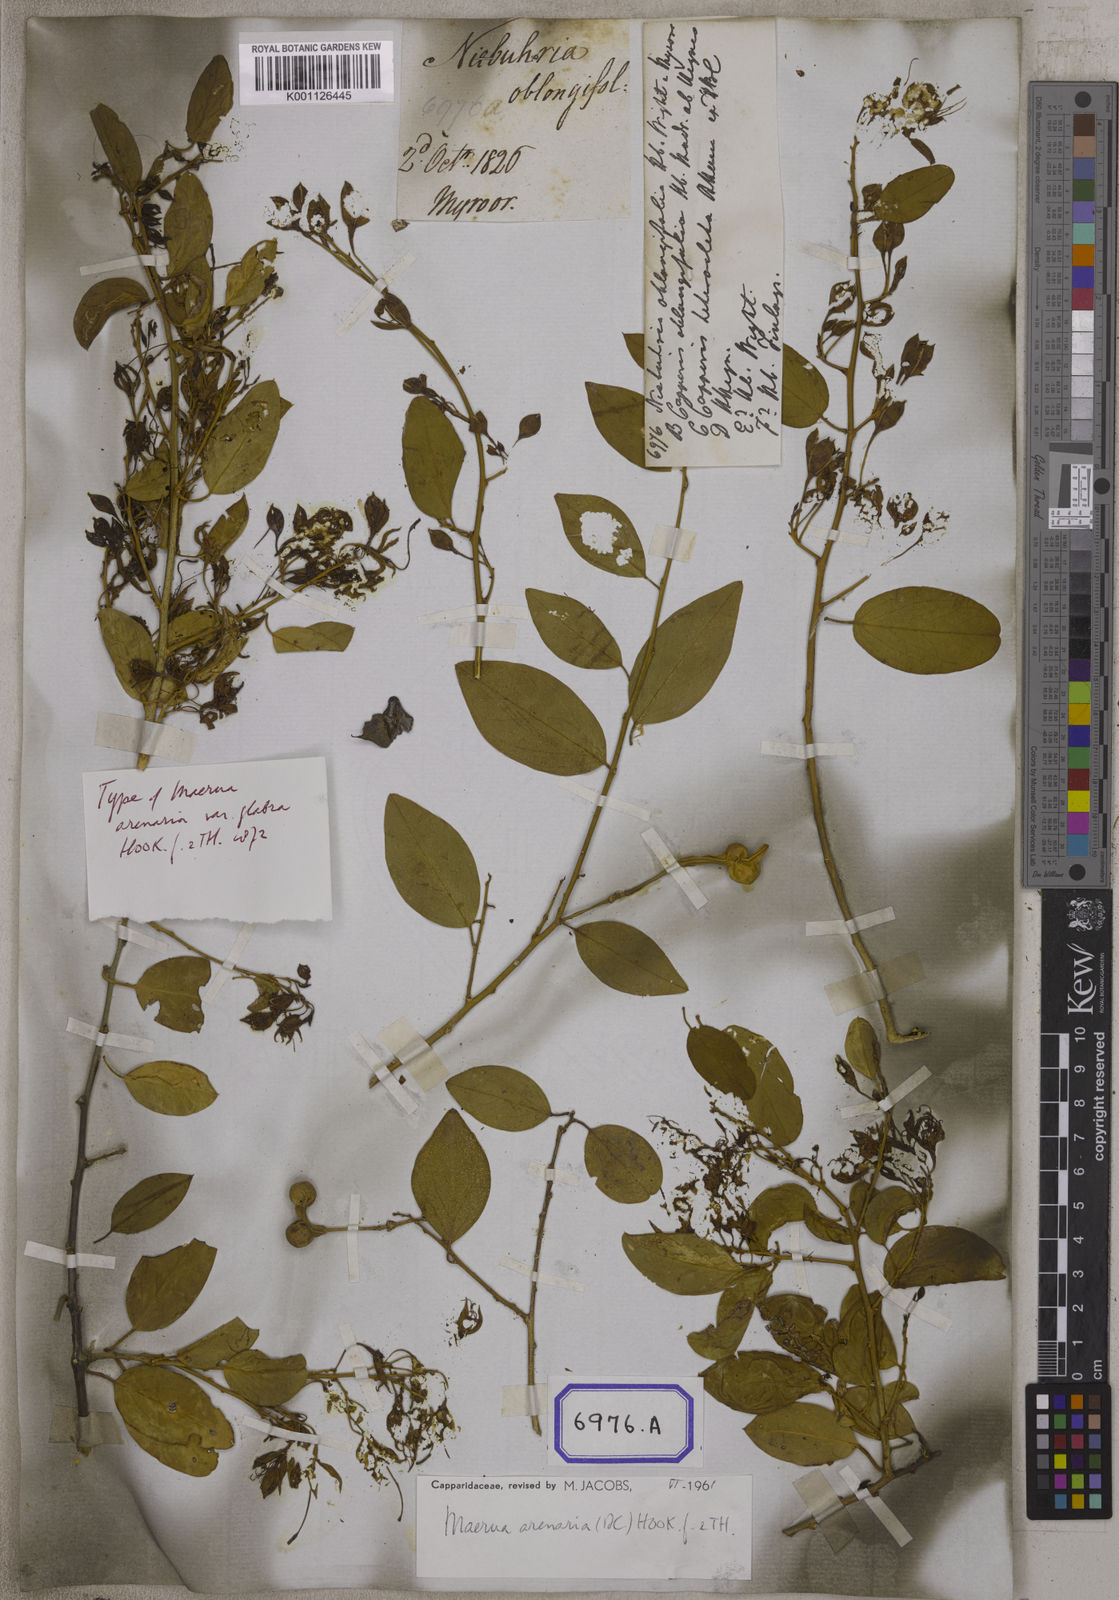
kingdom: Plantae
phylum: Tracheophyta
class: Magnoliopsida
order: Brassicales
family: Capparaceae
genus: Maerua
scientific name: Maerua oblongifolia
